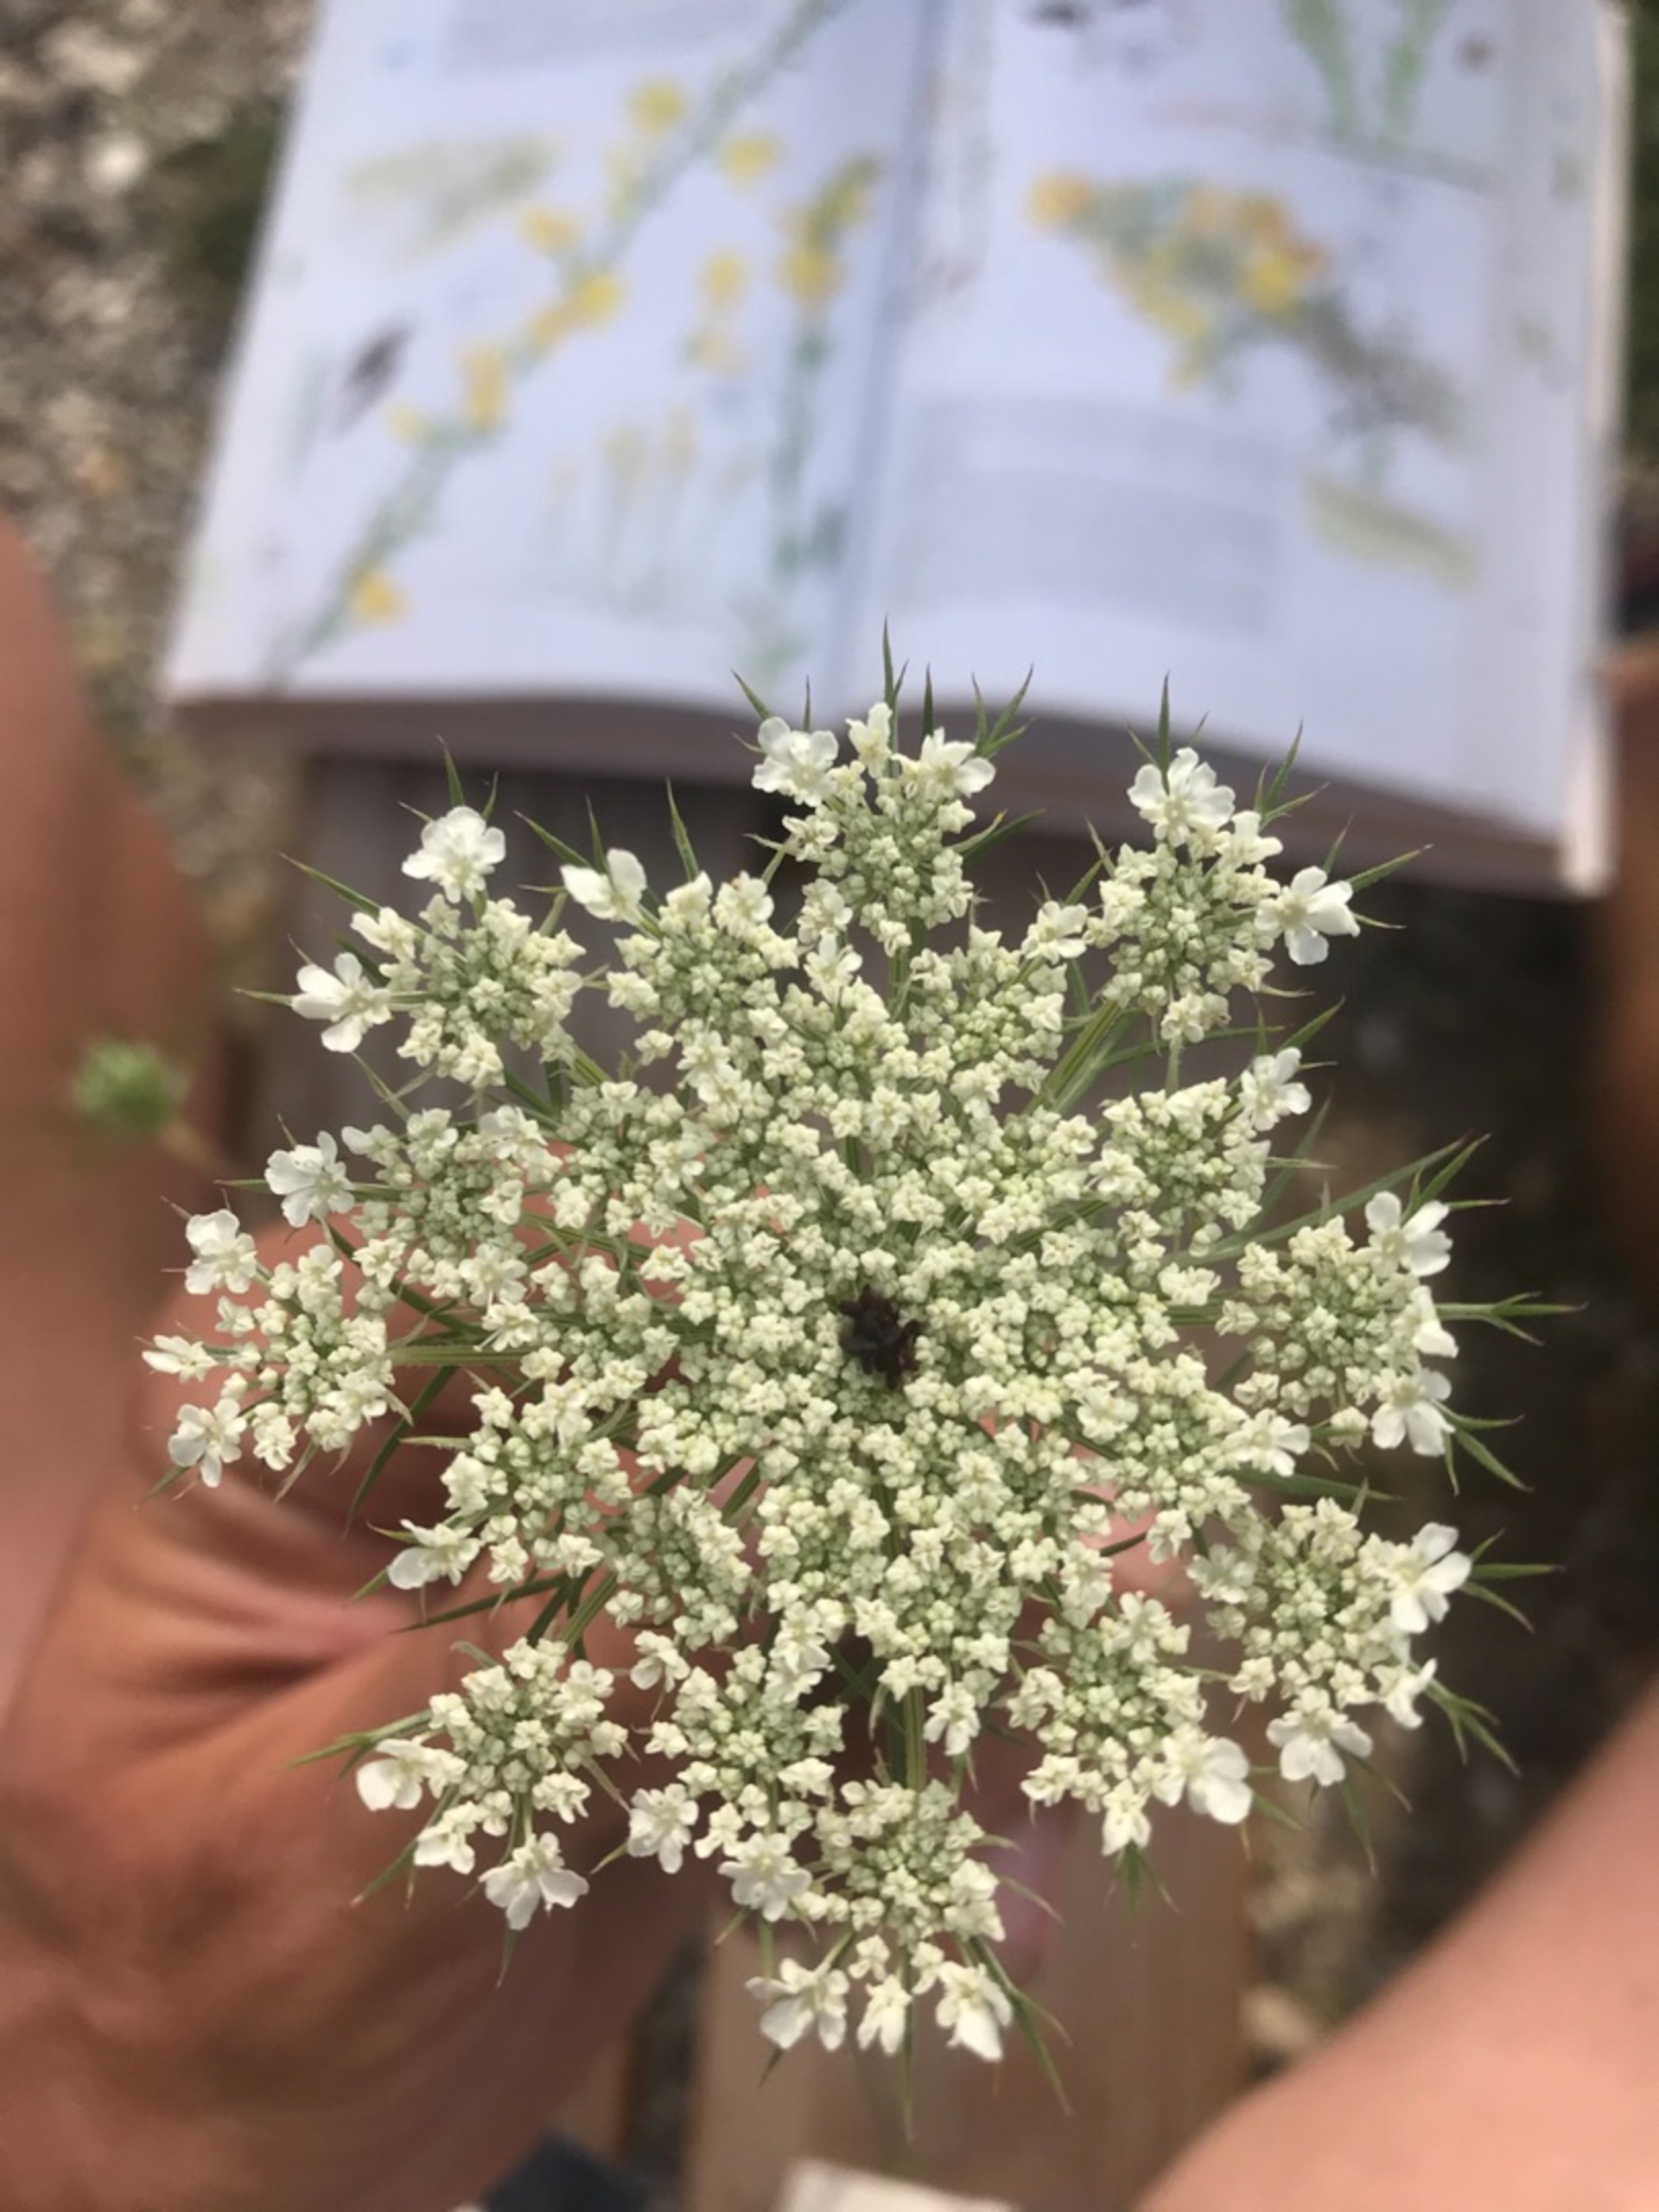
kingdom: Plantae
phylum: Tracheophyta
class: Magnoliopsida
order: Apiales
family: Apiaceae
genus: Daucus
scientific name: Daucus carota
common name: Vild gulerod
